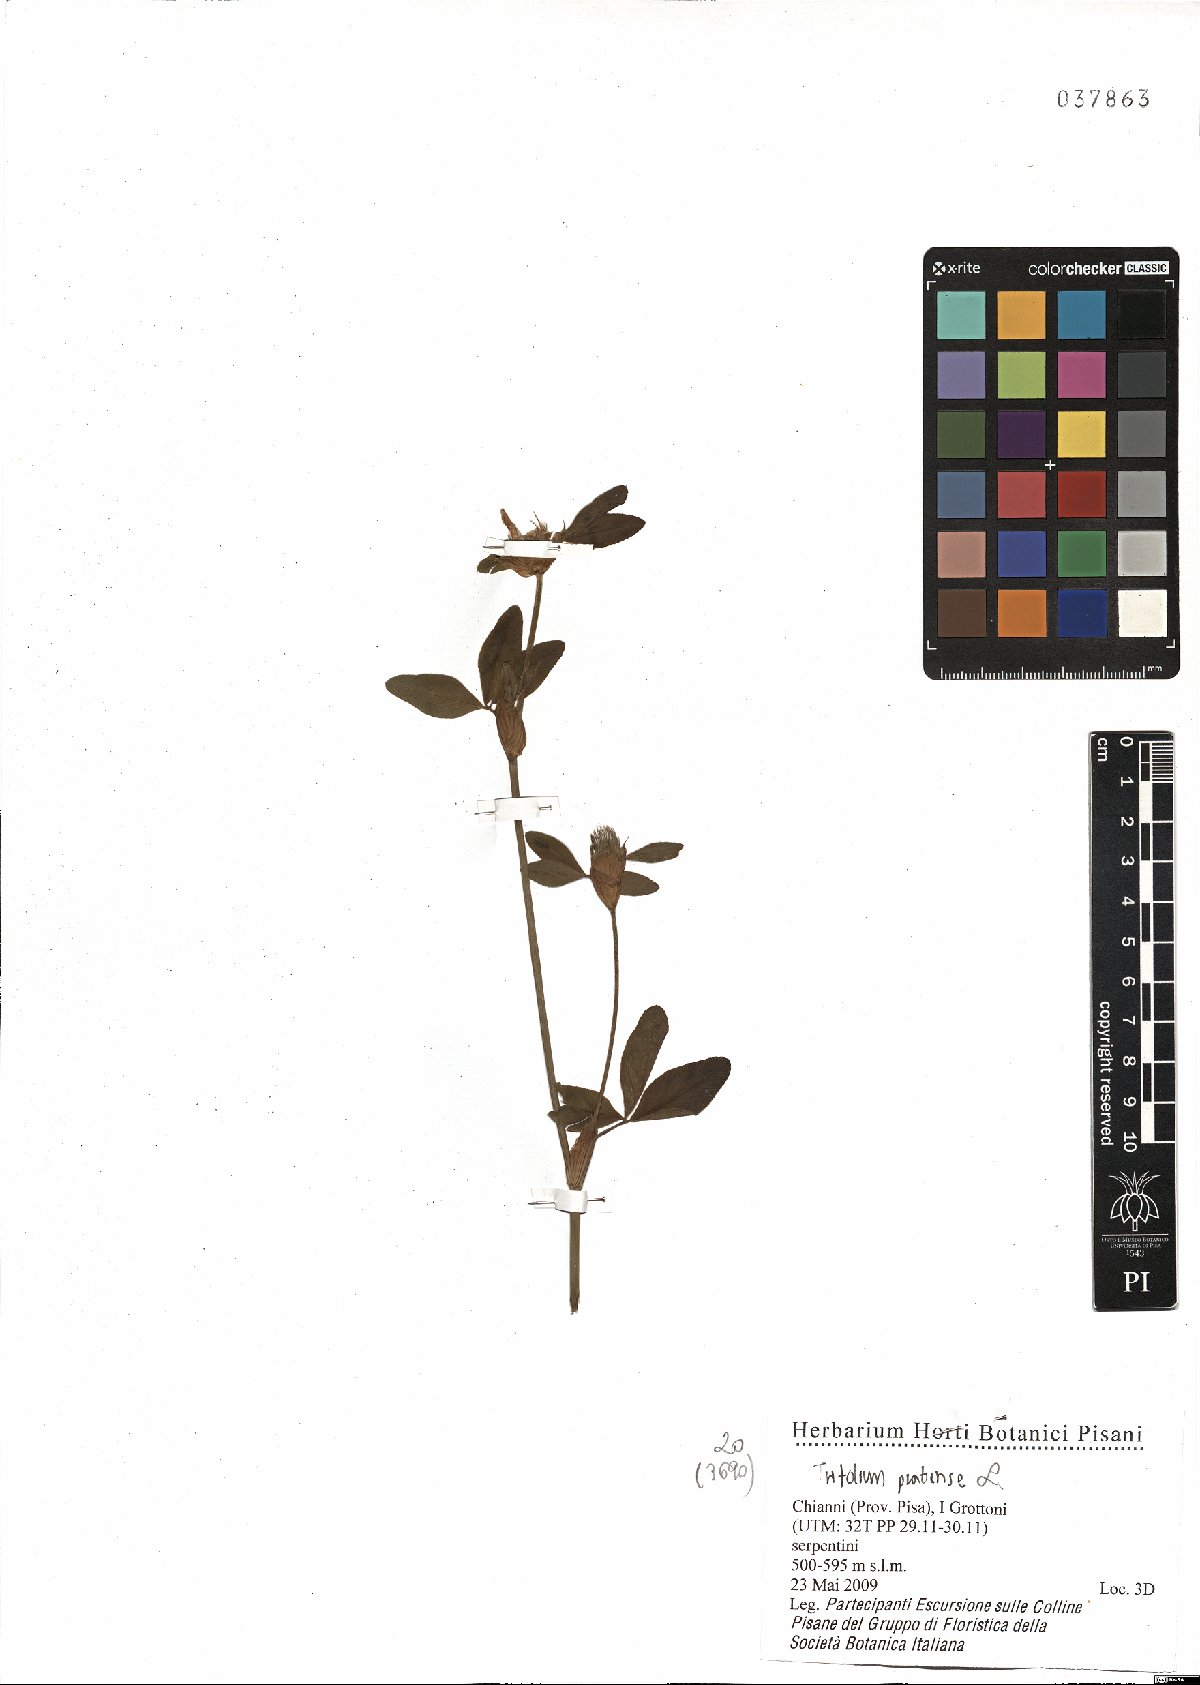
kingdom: Plantae
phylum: Tracheophyta
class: Magnoliopsida
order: Fabales
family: Fabaceae
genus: Trifolium
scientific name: Trifolium pratense
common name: Red clover
